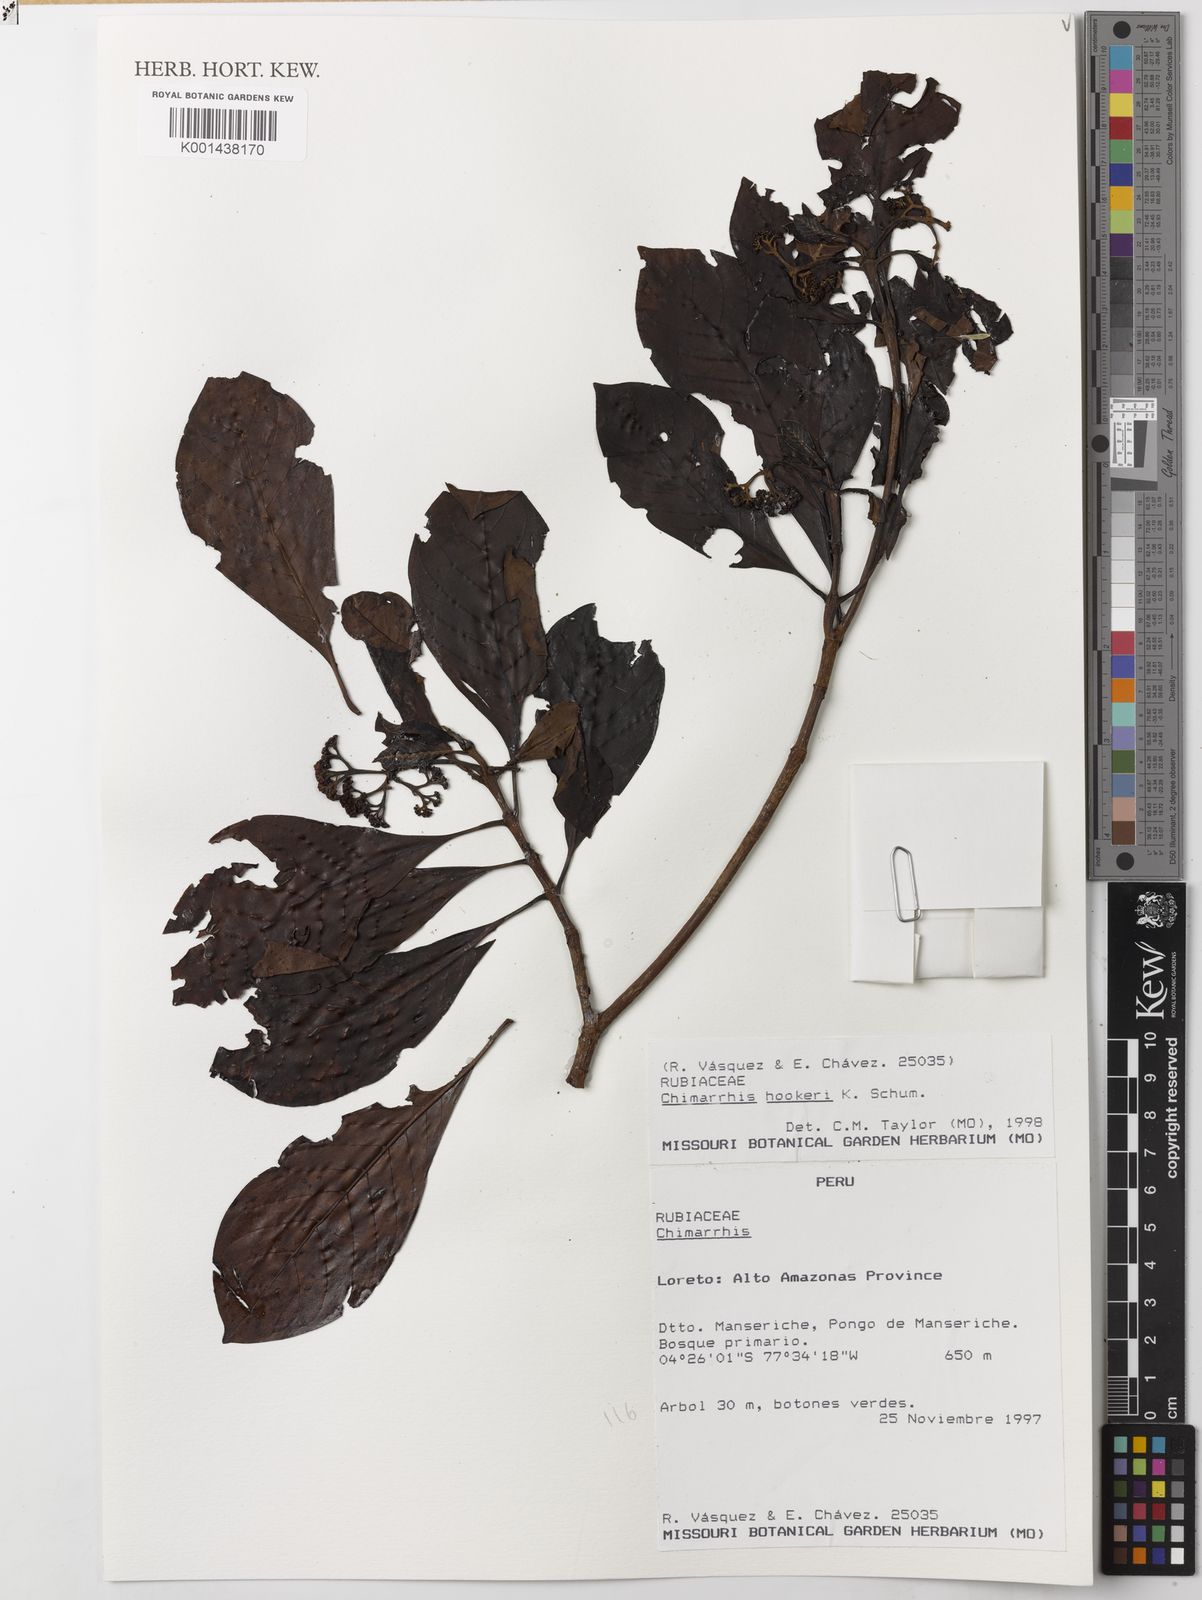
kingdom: Plantae
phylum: Tracheophyta
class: Magnoliopsida
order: Gentianales
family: Rubiaceae
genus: Chimarrhis
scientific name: Chimarrhis hookeri
